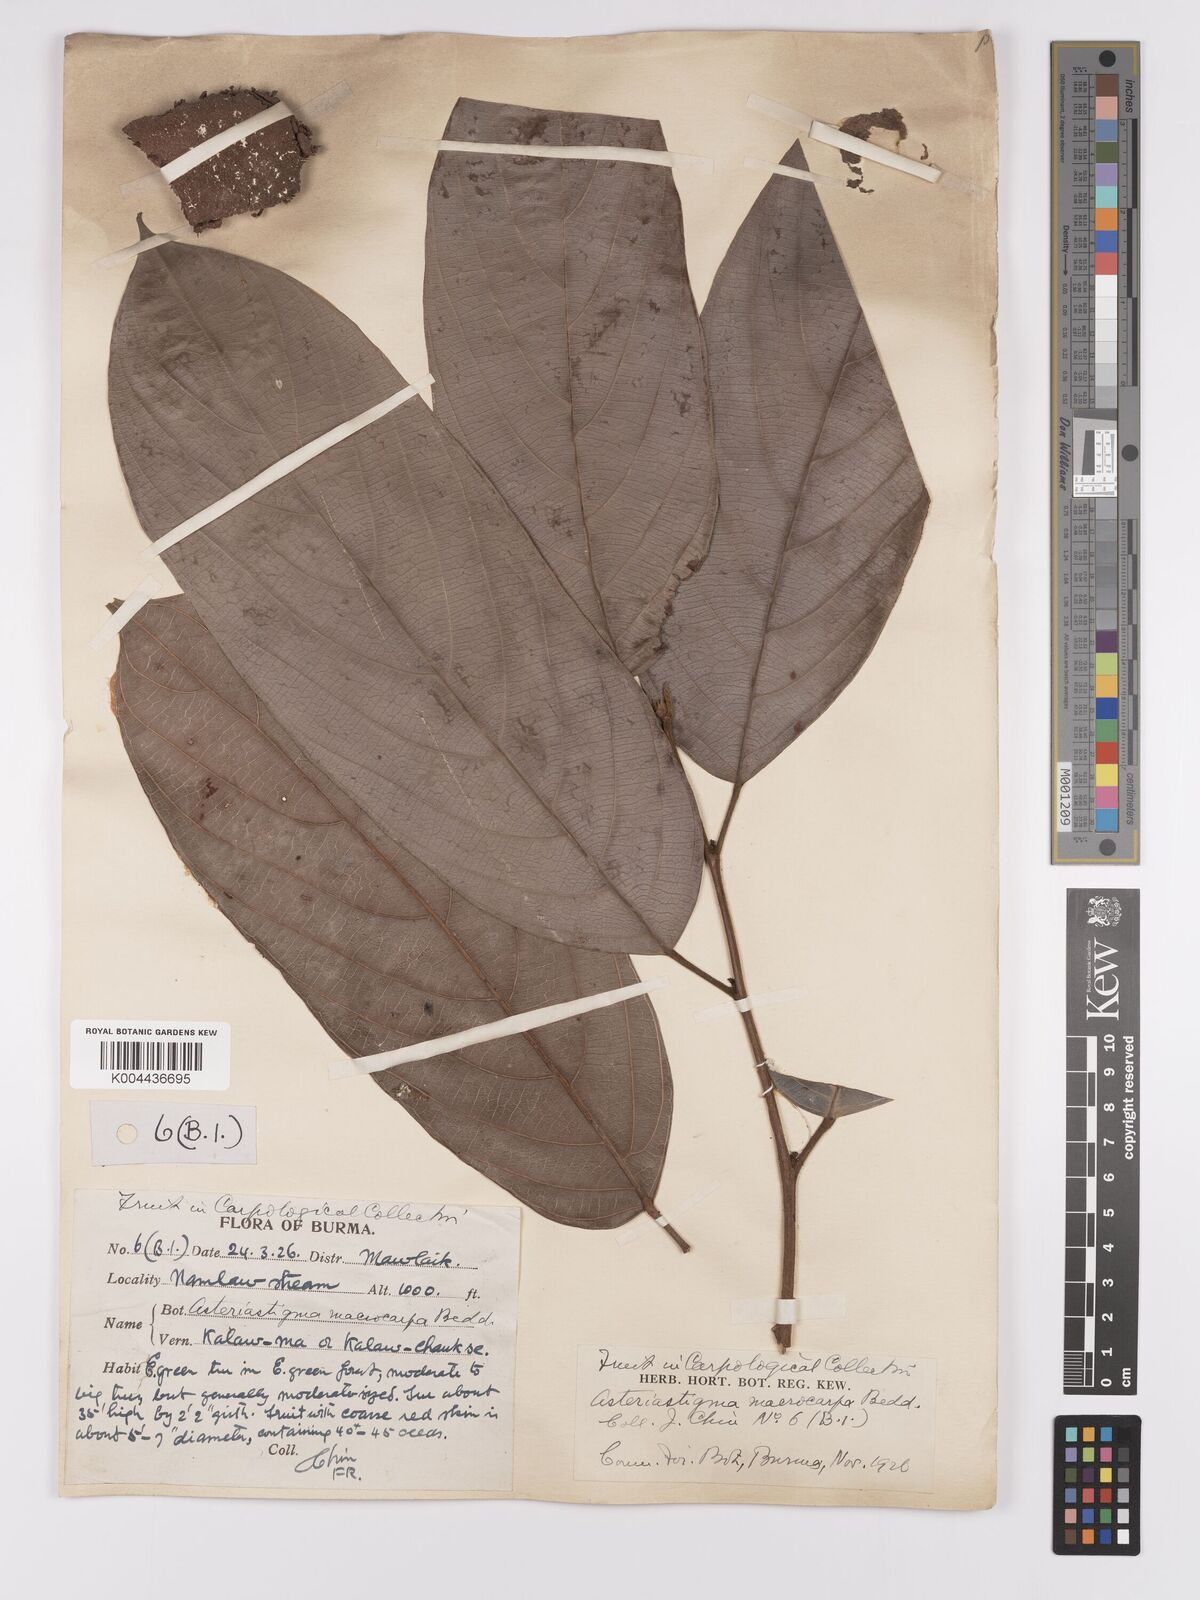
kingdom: Plantae
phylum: Tracheophyta
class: Magnoliopsida
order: Malpighiales
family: Achariaceae
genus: Hydnocarpus
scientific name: Hydnocarpus macrocarpus
